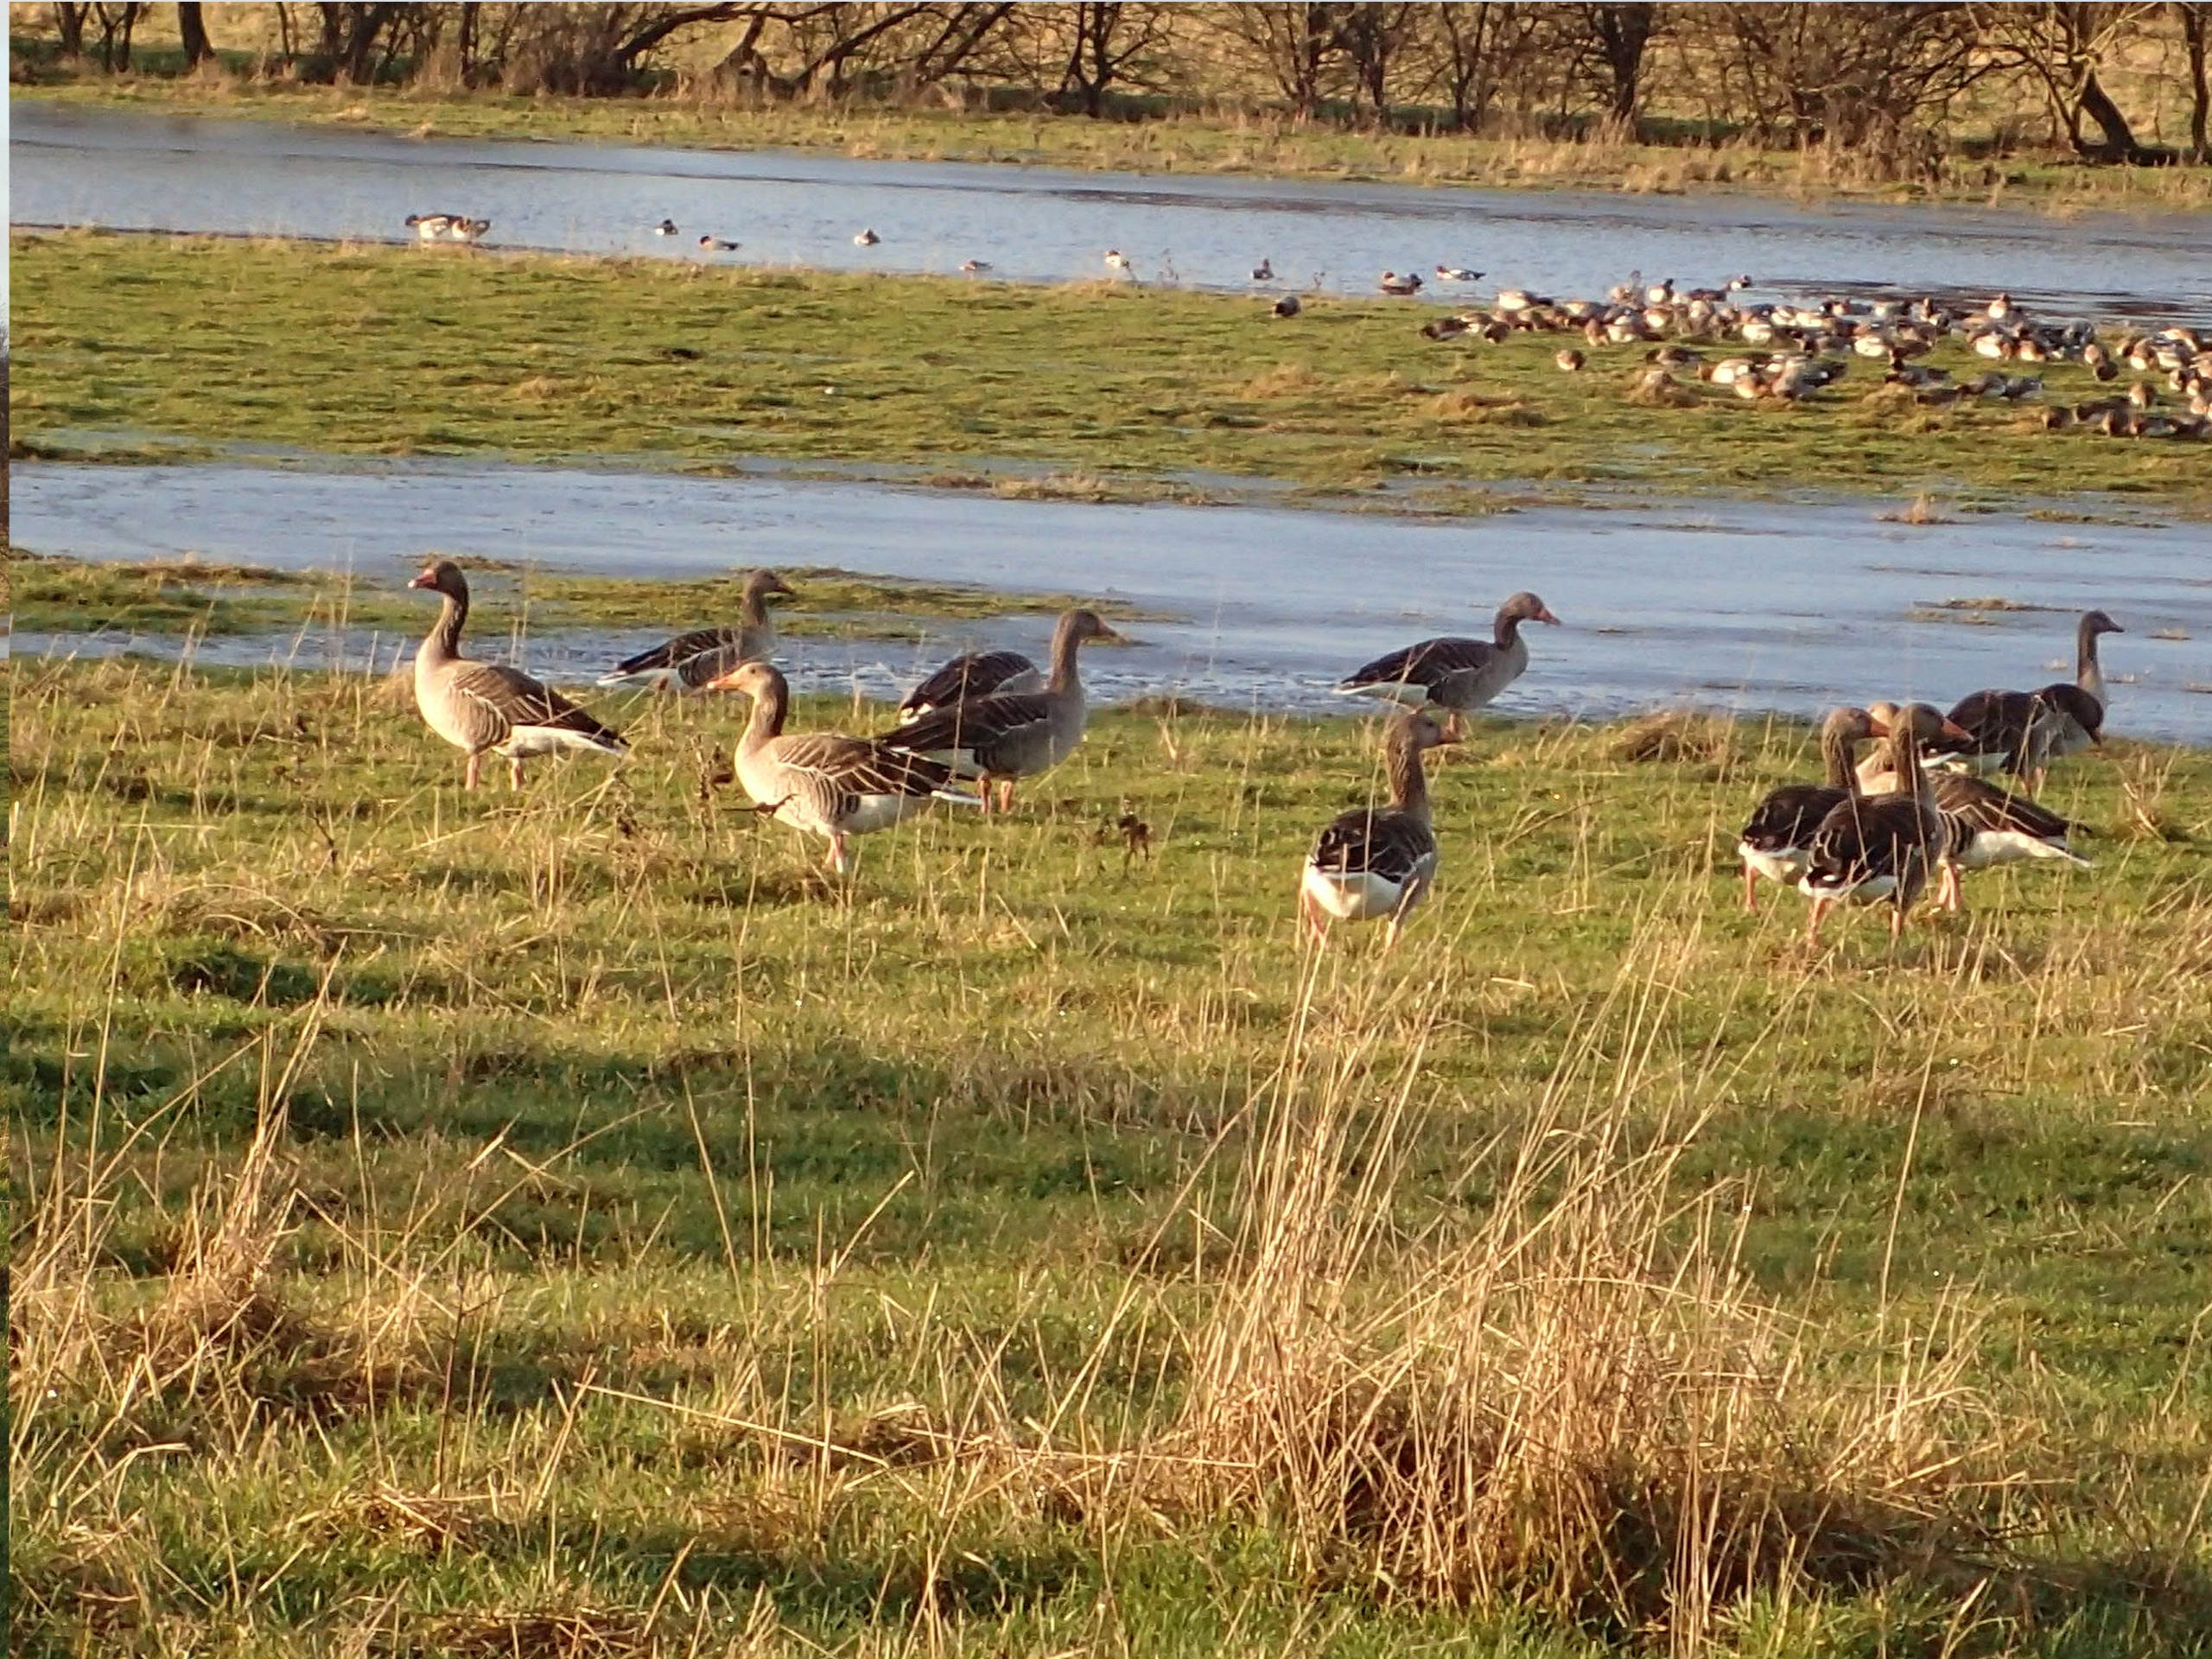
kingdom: Animalia
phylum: Chordata
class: Aves
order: Anseriformes
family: Anatidae
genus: Anser
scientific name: Anser anser
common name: Grågås
